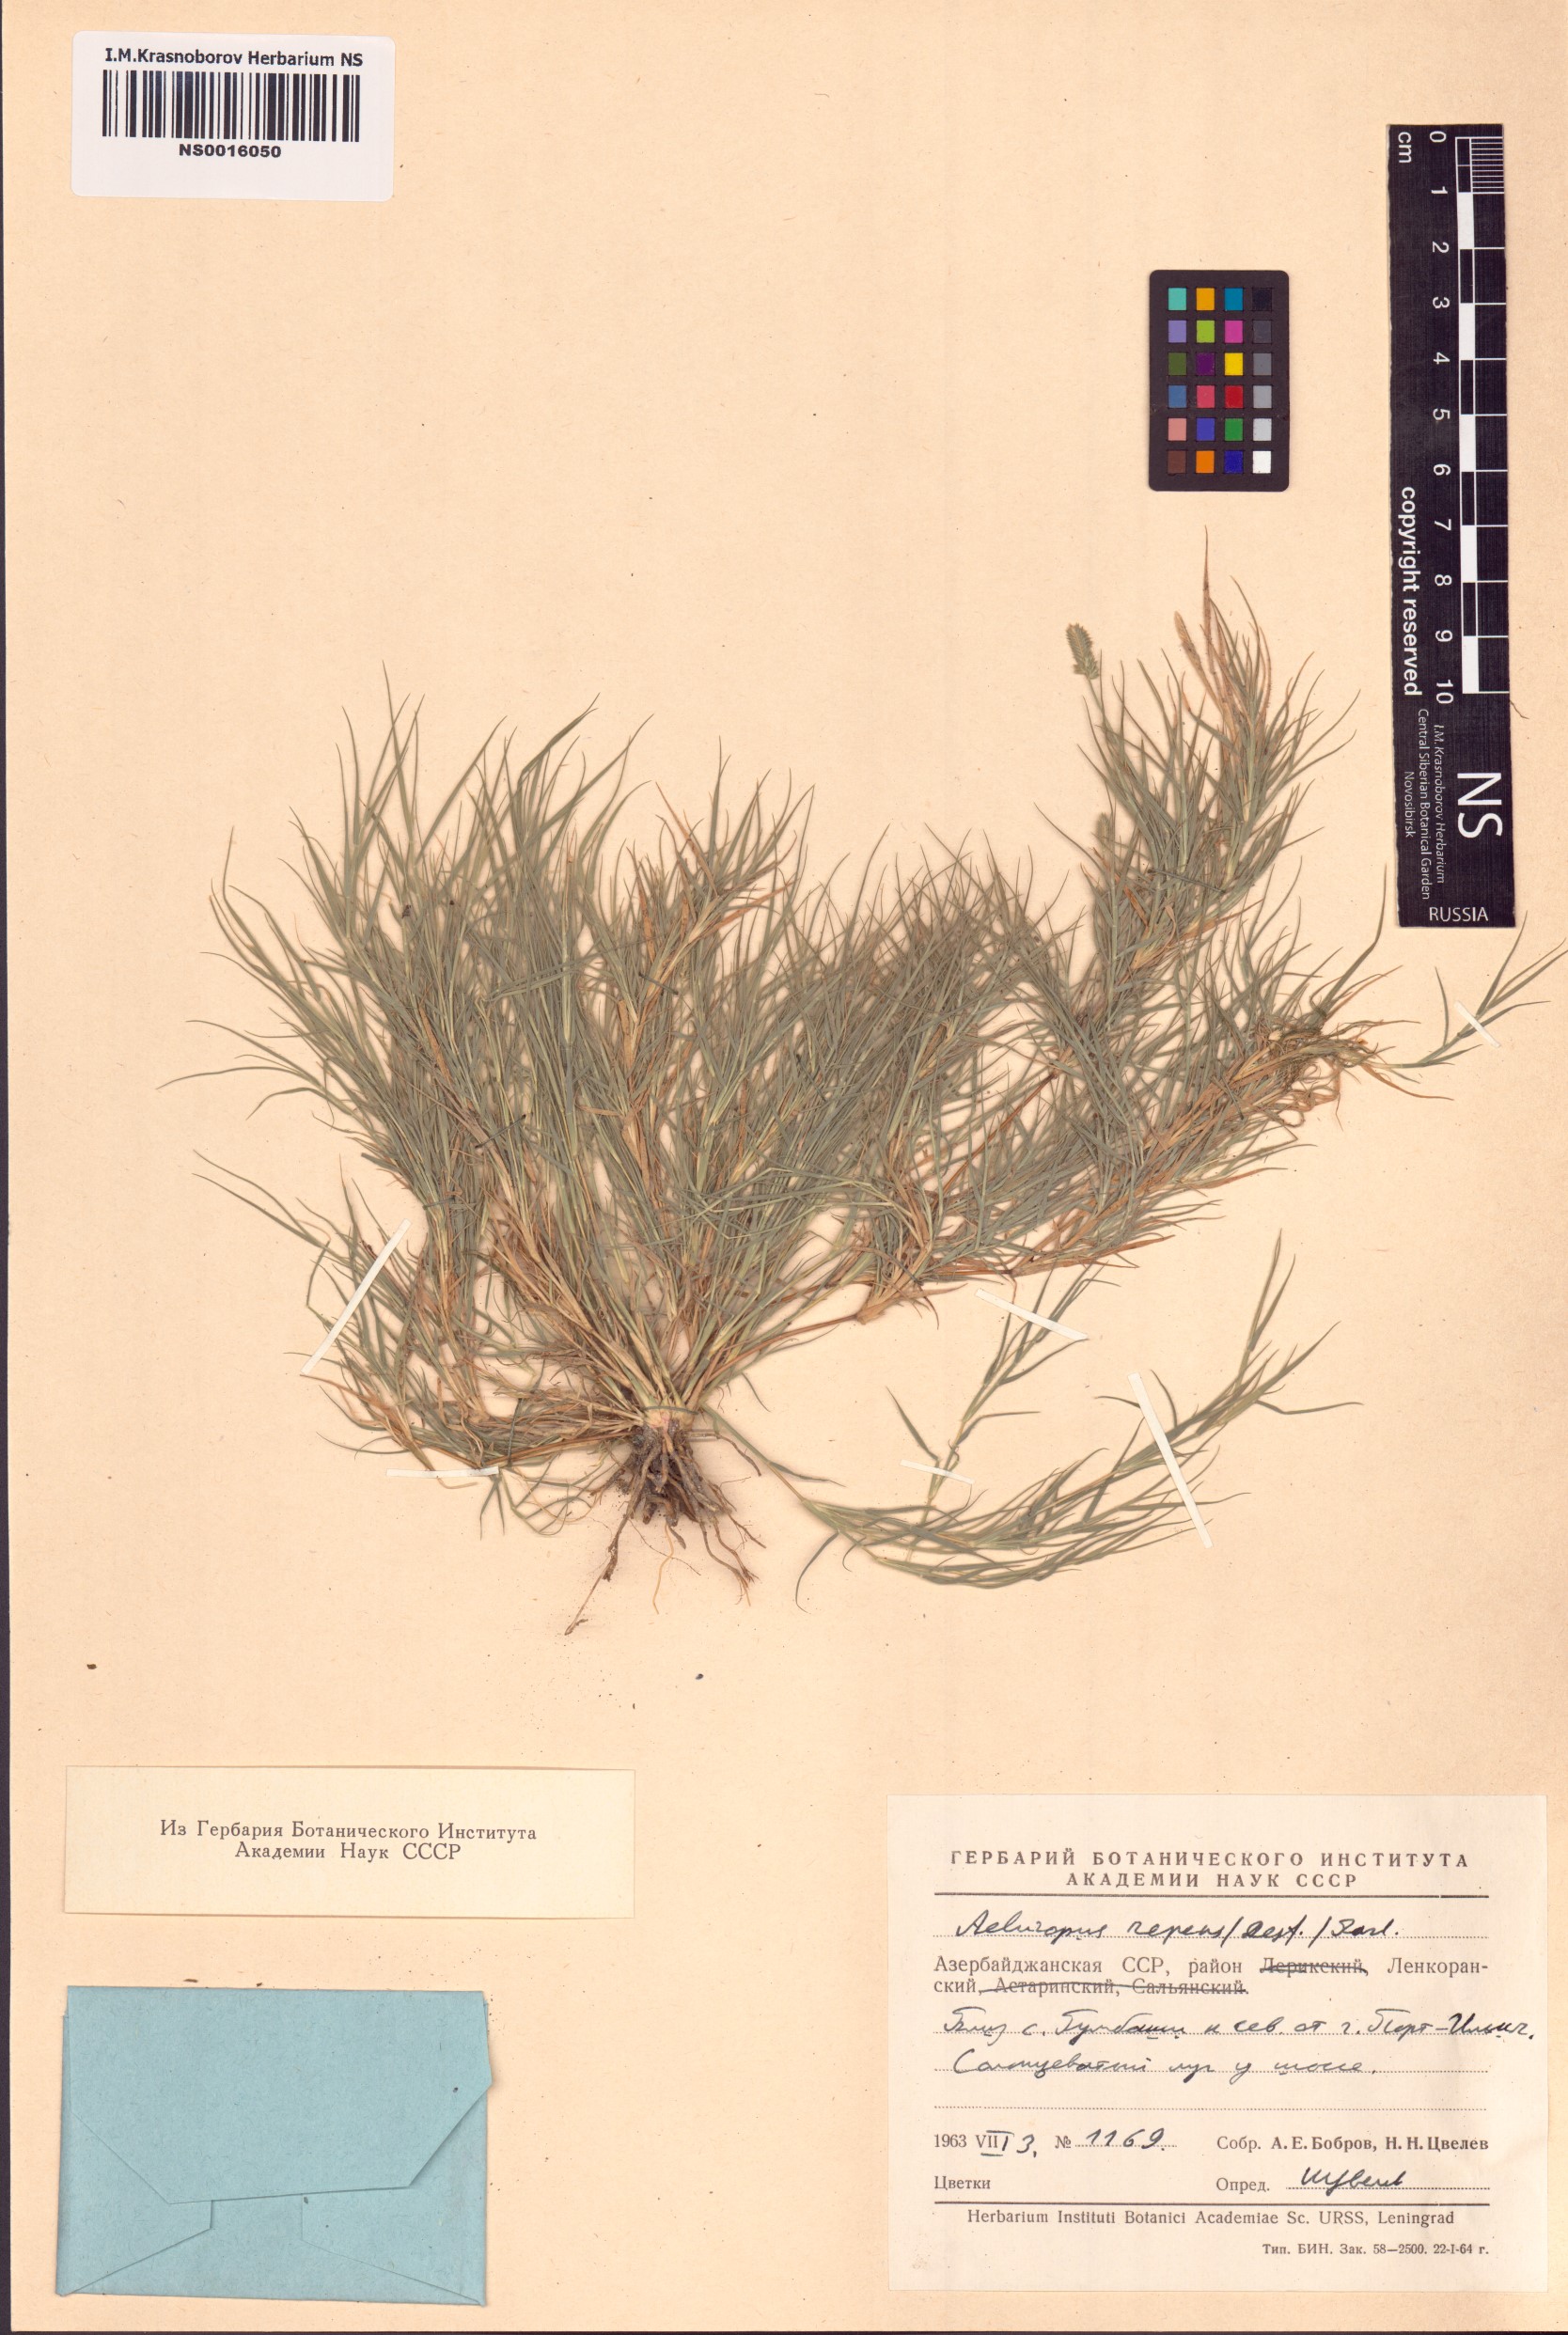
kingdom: Plantae
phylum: Tracheophyta
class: Liliopsida
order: Poales
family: Poaceae
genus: Aeluropus
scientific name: Aeluropus lagopoides
